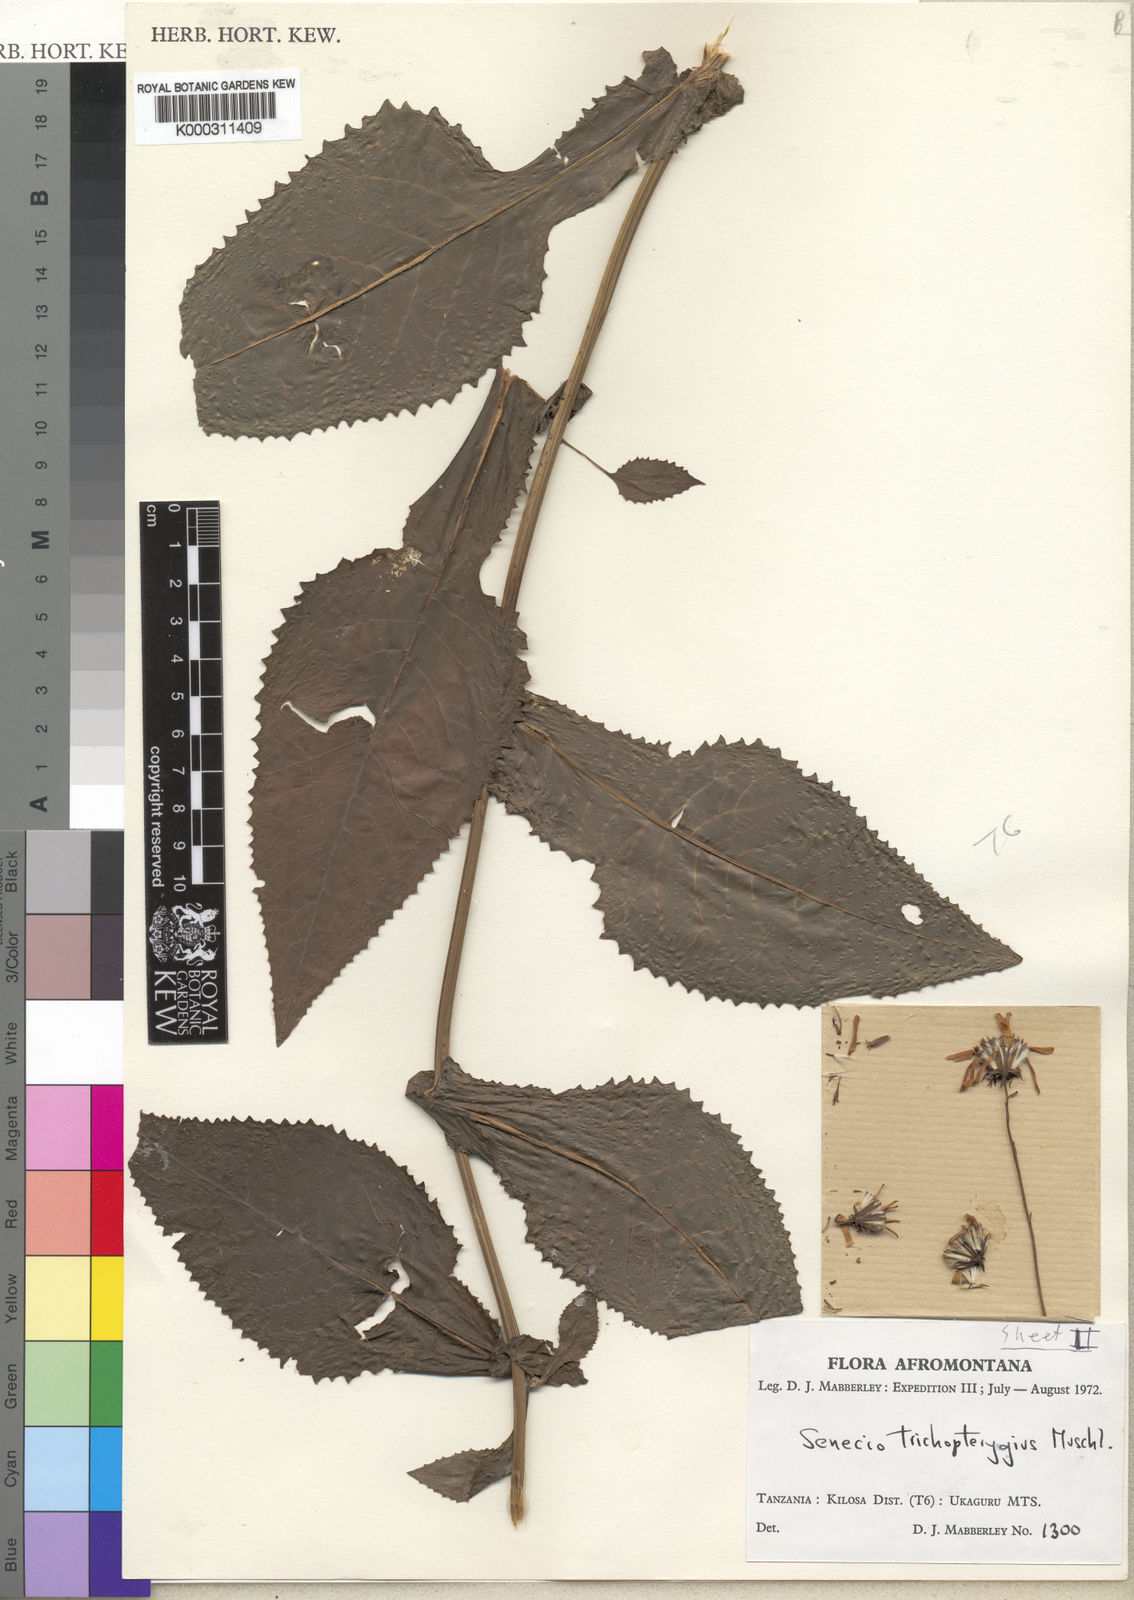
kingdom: Plantae
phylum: Tracheophyta
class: Magnoliopsida
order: Asterales
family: Asteraceae
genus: Senecio
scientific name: Senecio
